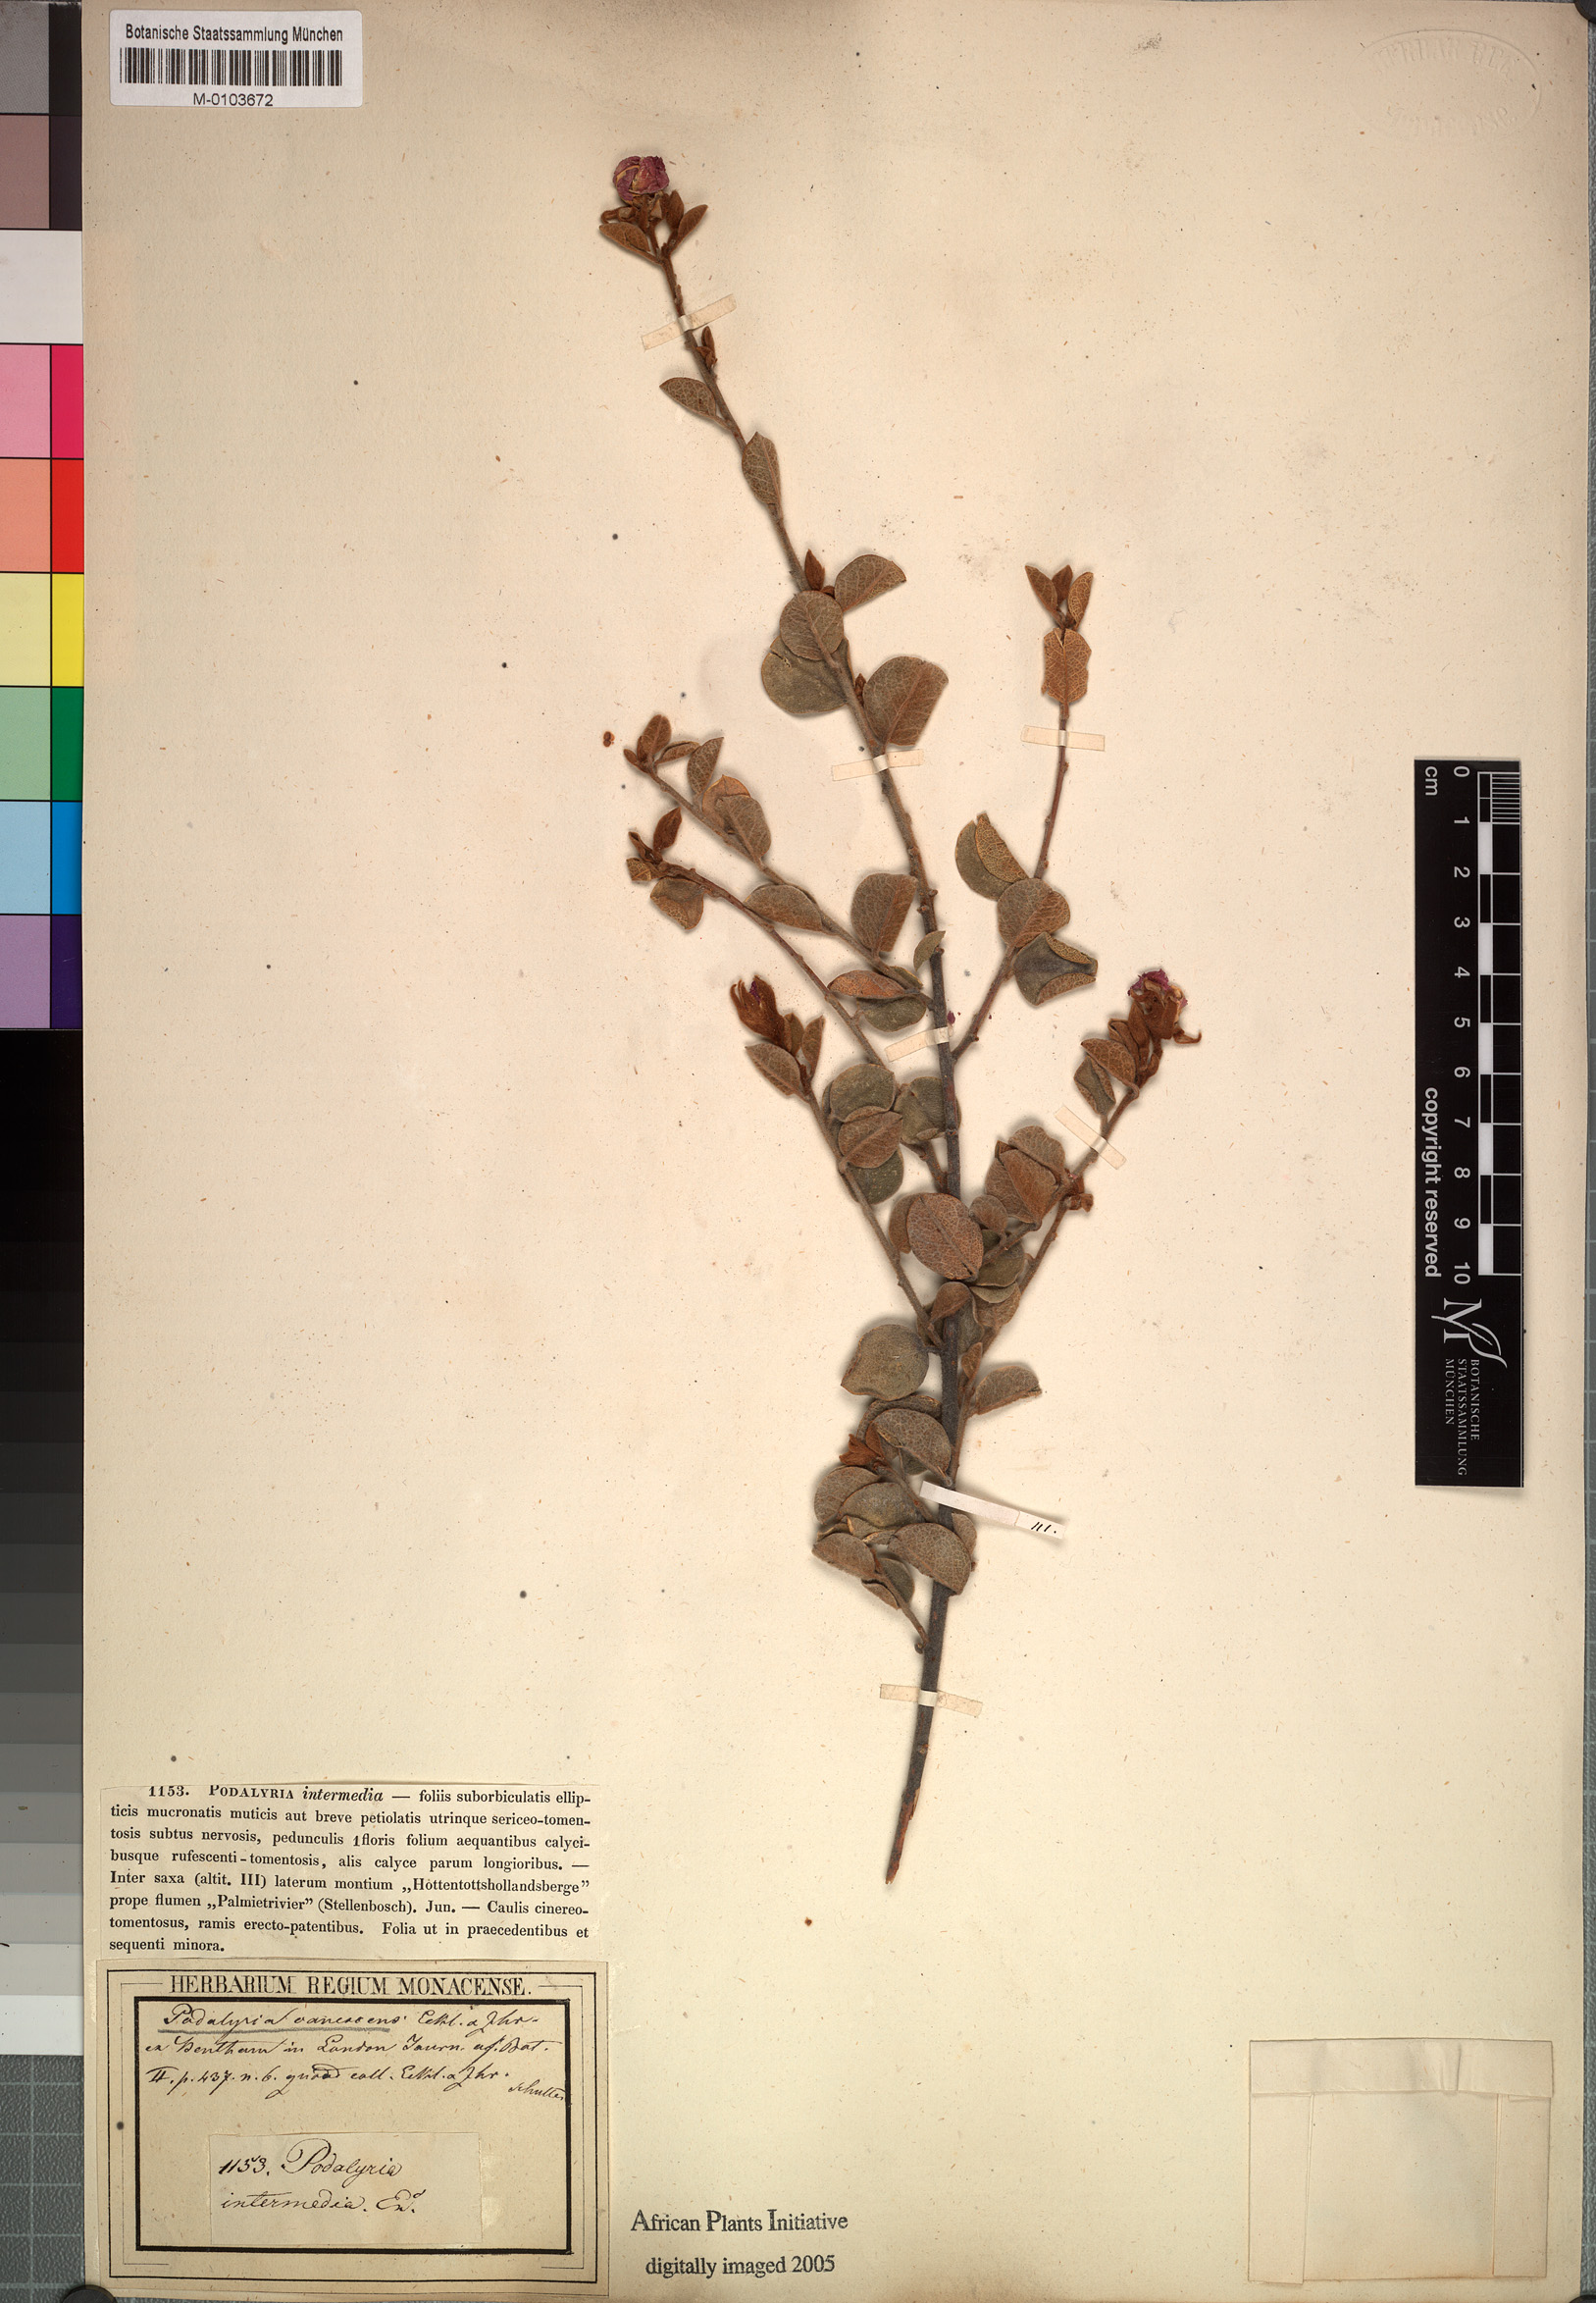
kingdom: Plantae
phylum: Tracheophyta
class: Magnoliopsida
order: Fabales
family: Fabaceae
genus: Xiphotheca
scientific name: Xiphotheca canescens
